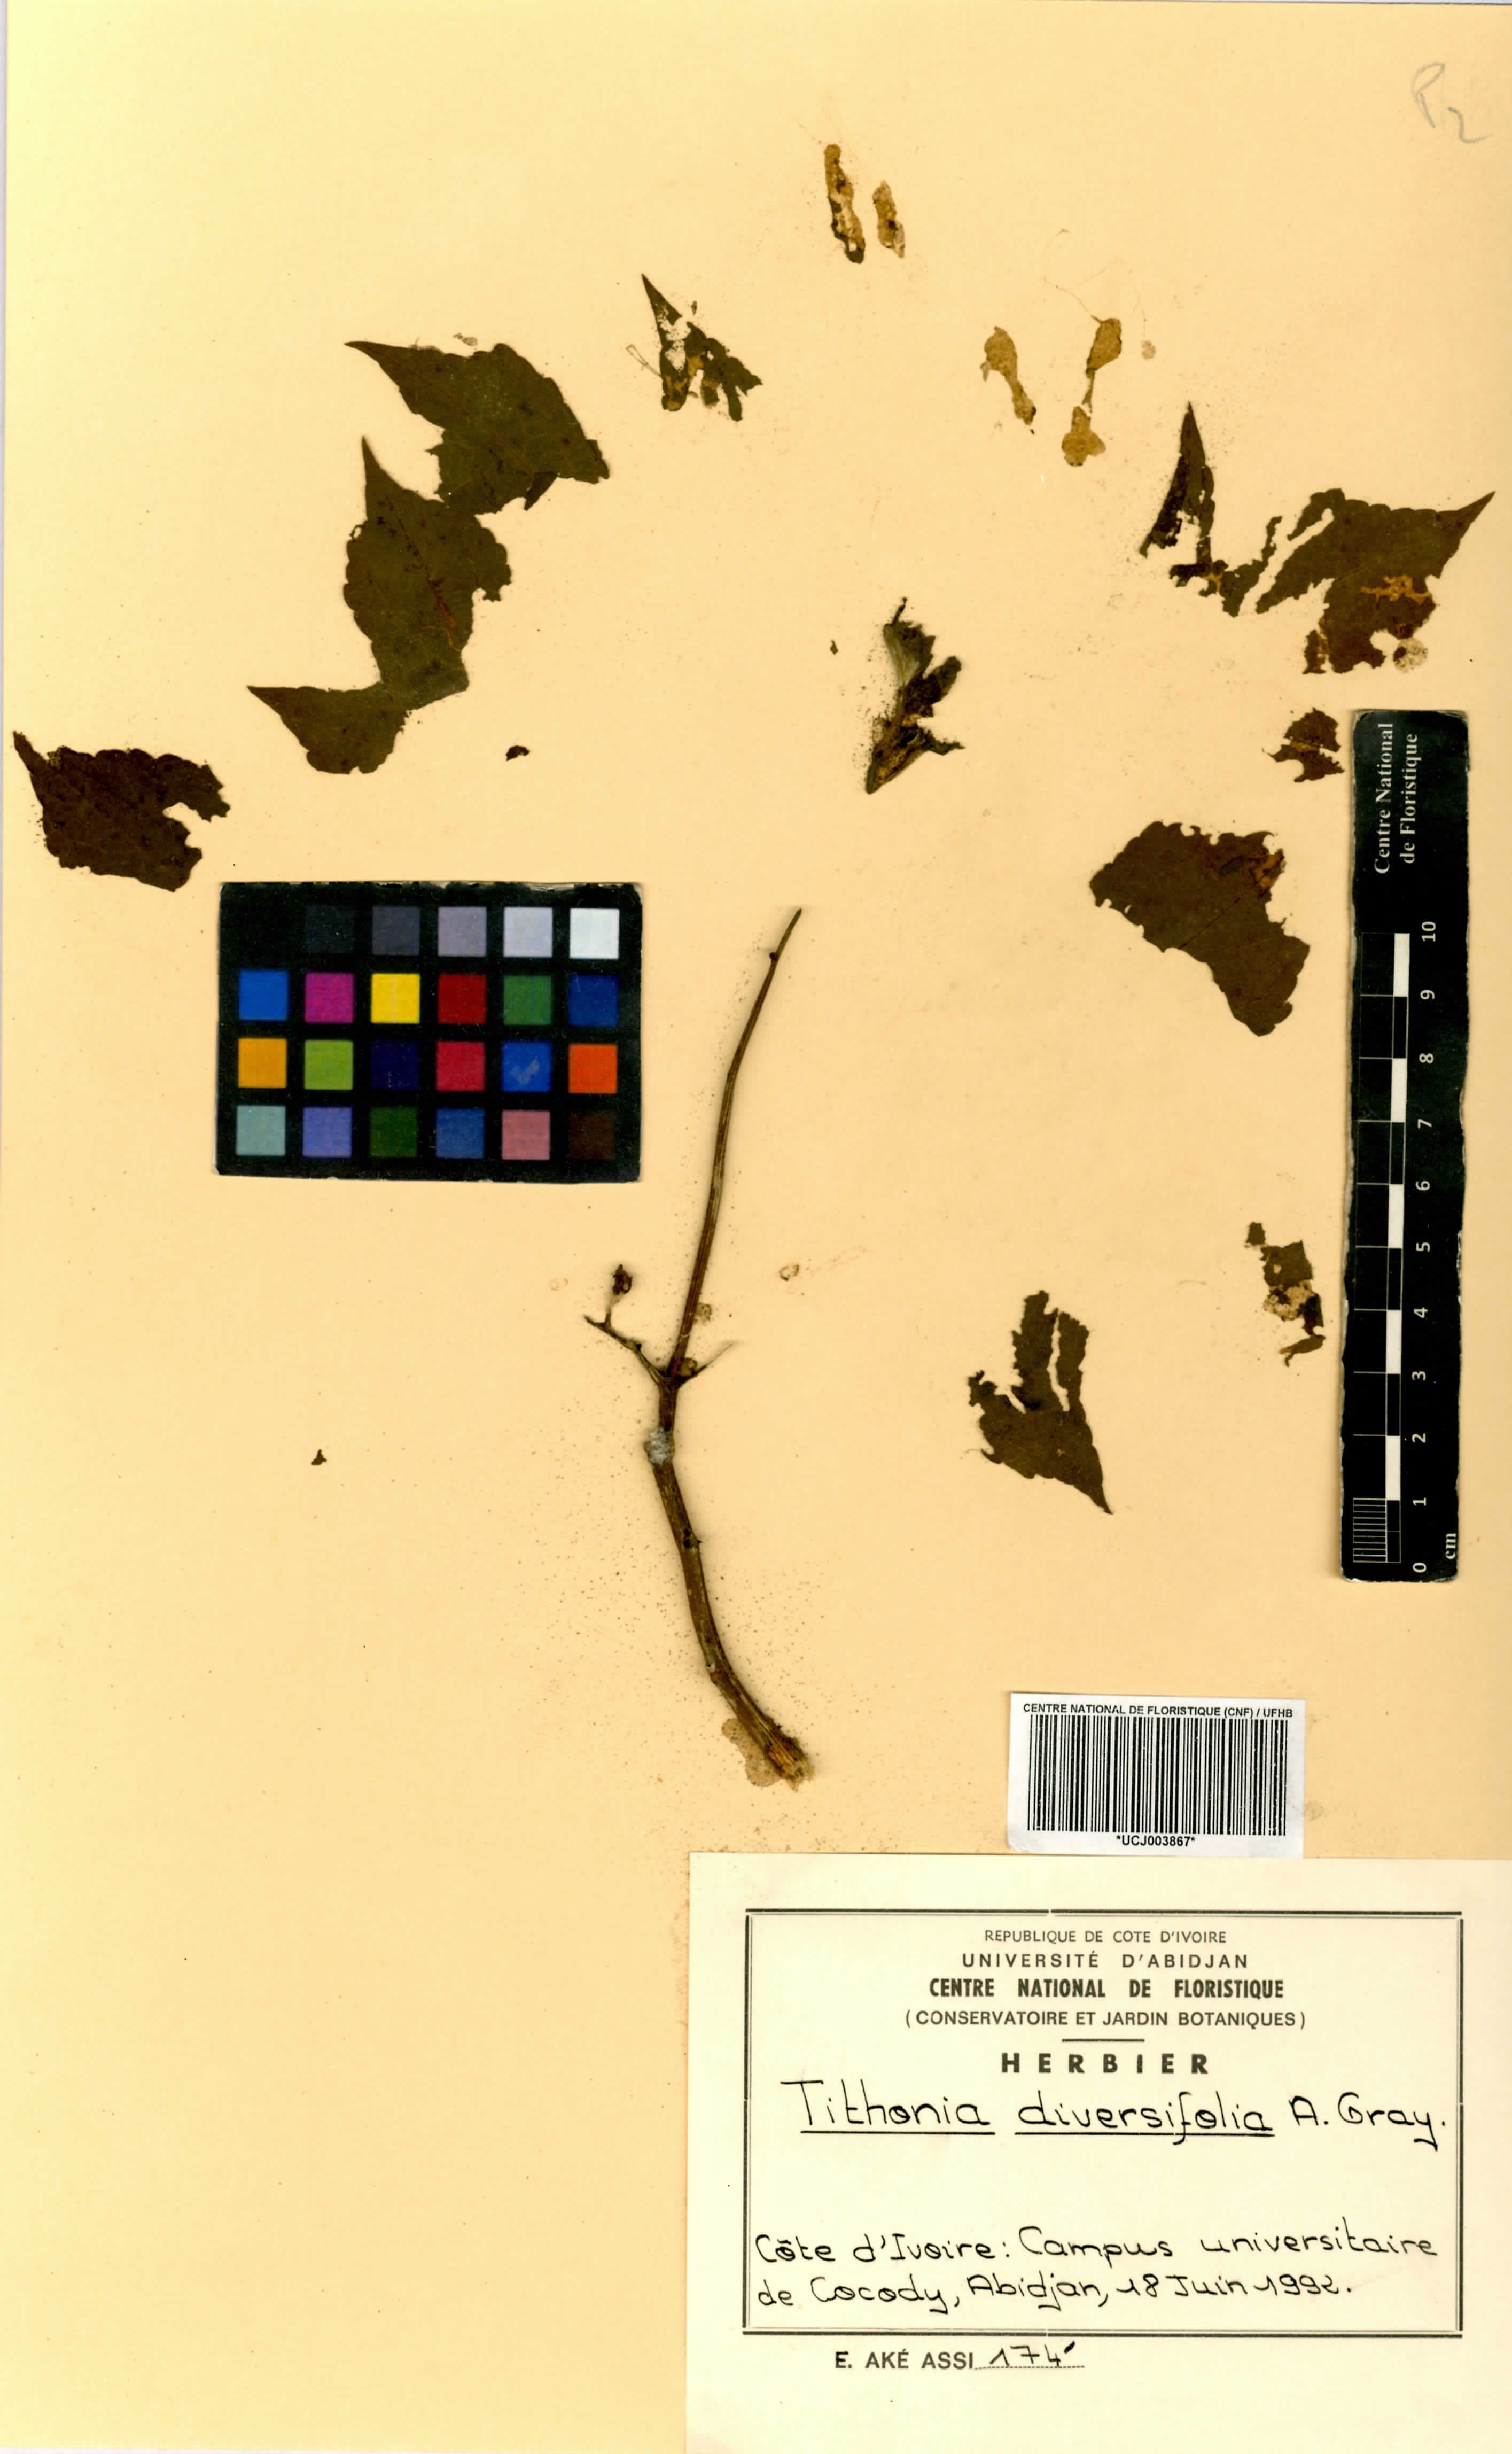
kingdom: Plantae
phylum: Tracheophyta
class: Magnoliopsida
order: Asterales
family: Asteraceae
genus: Tithonia
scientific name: Tithonia diversifolia
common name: Tree marigold
